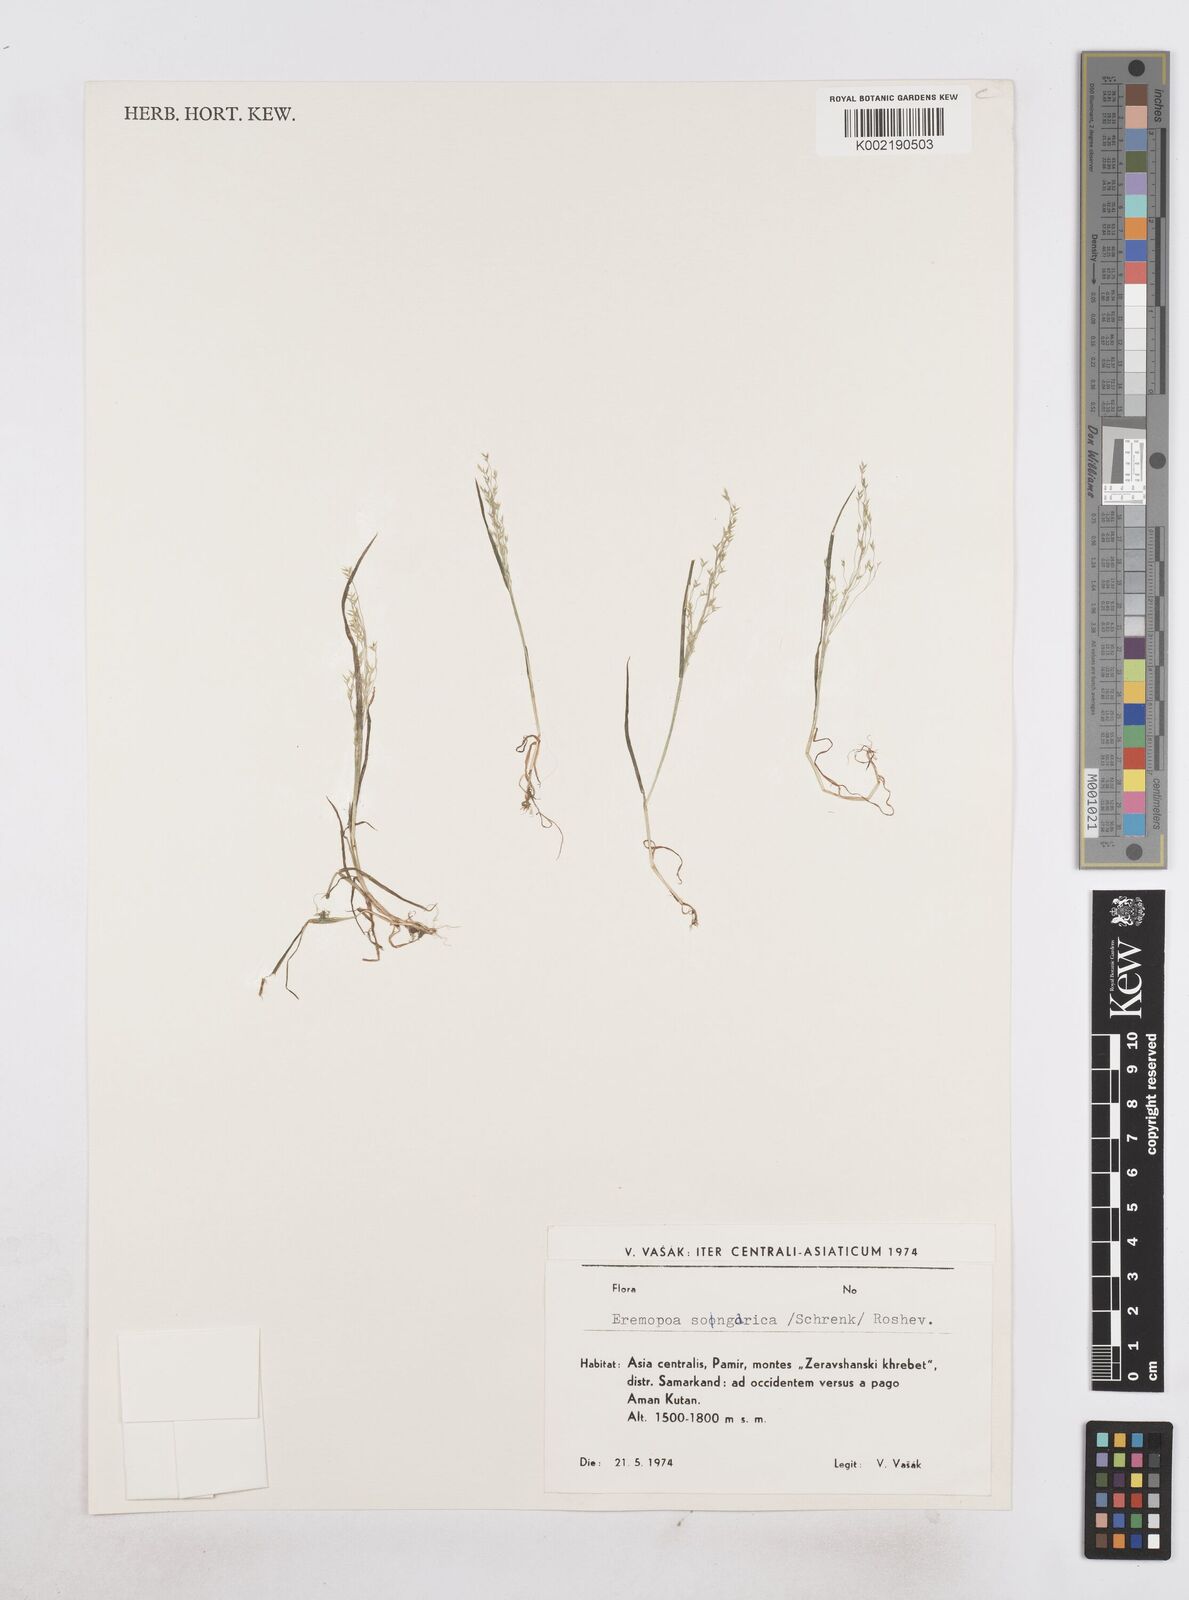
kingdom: Plantae
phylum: Tracheophyta
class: Liliopsida
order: Poales
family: Poaceae
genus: Poa
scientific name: Poa diaphora
